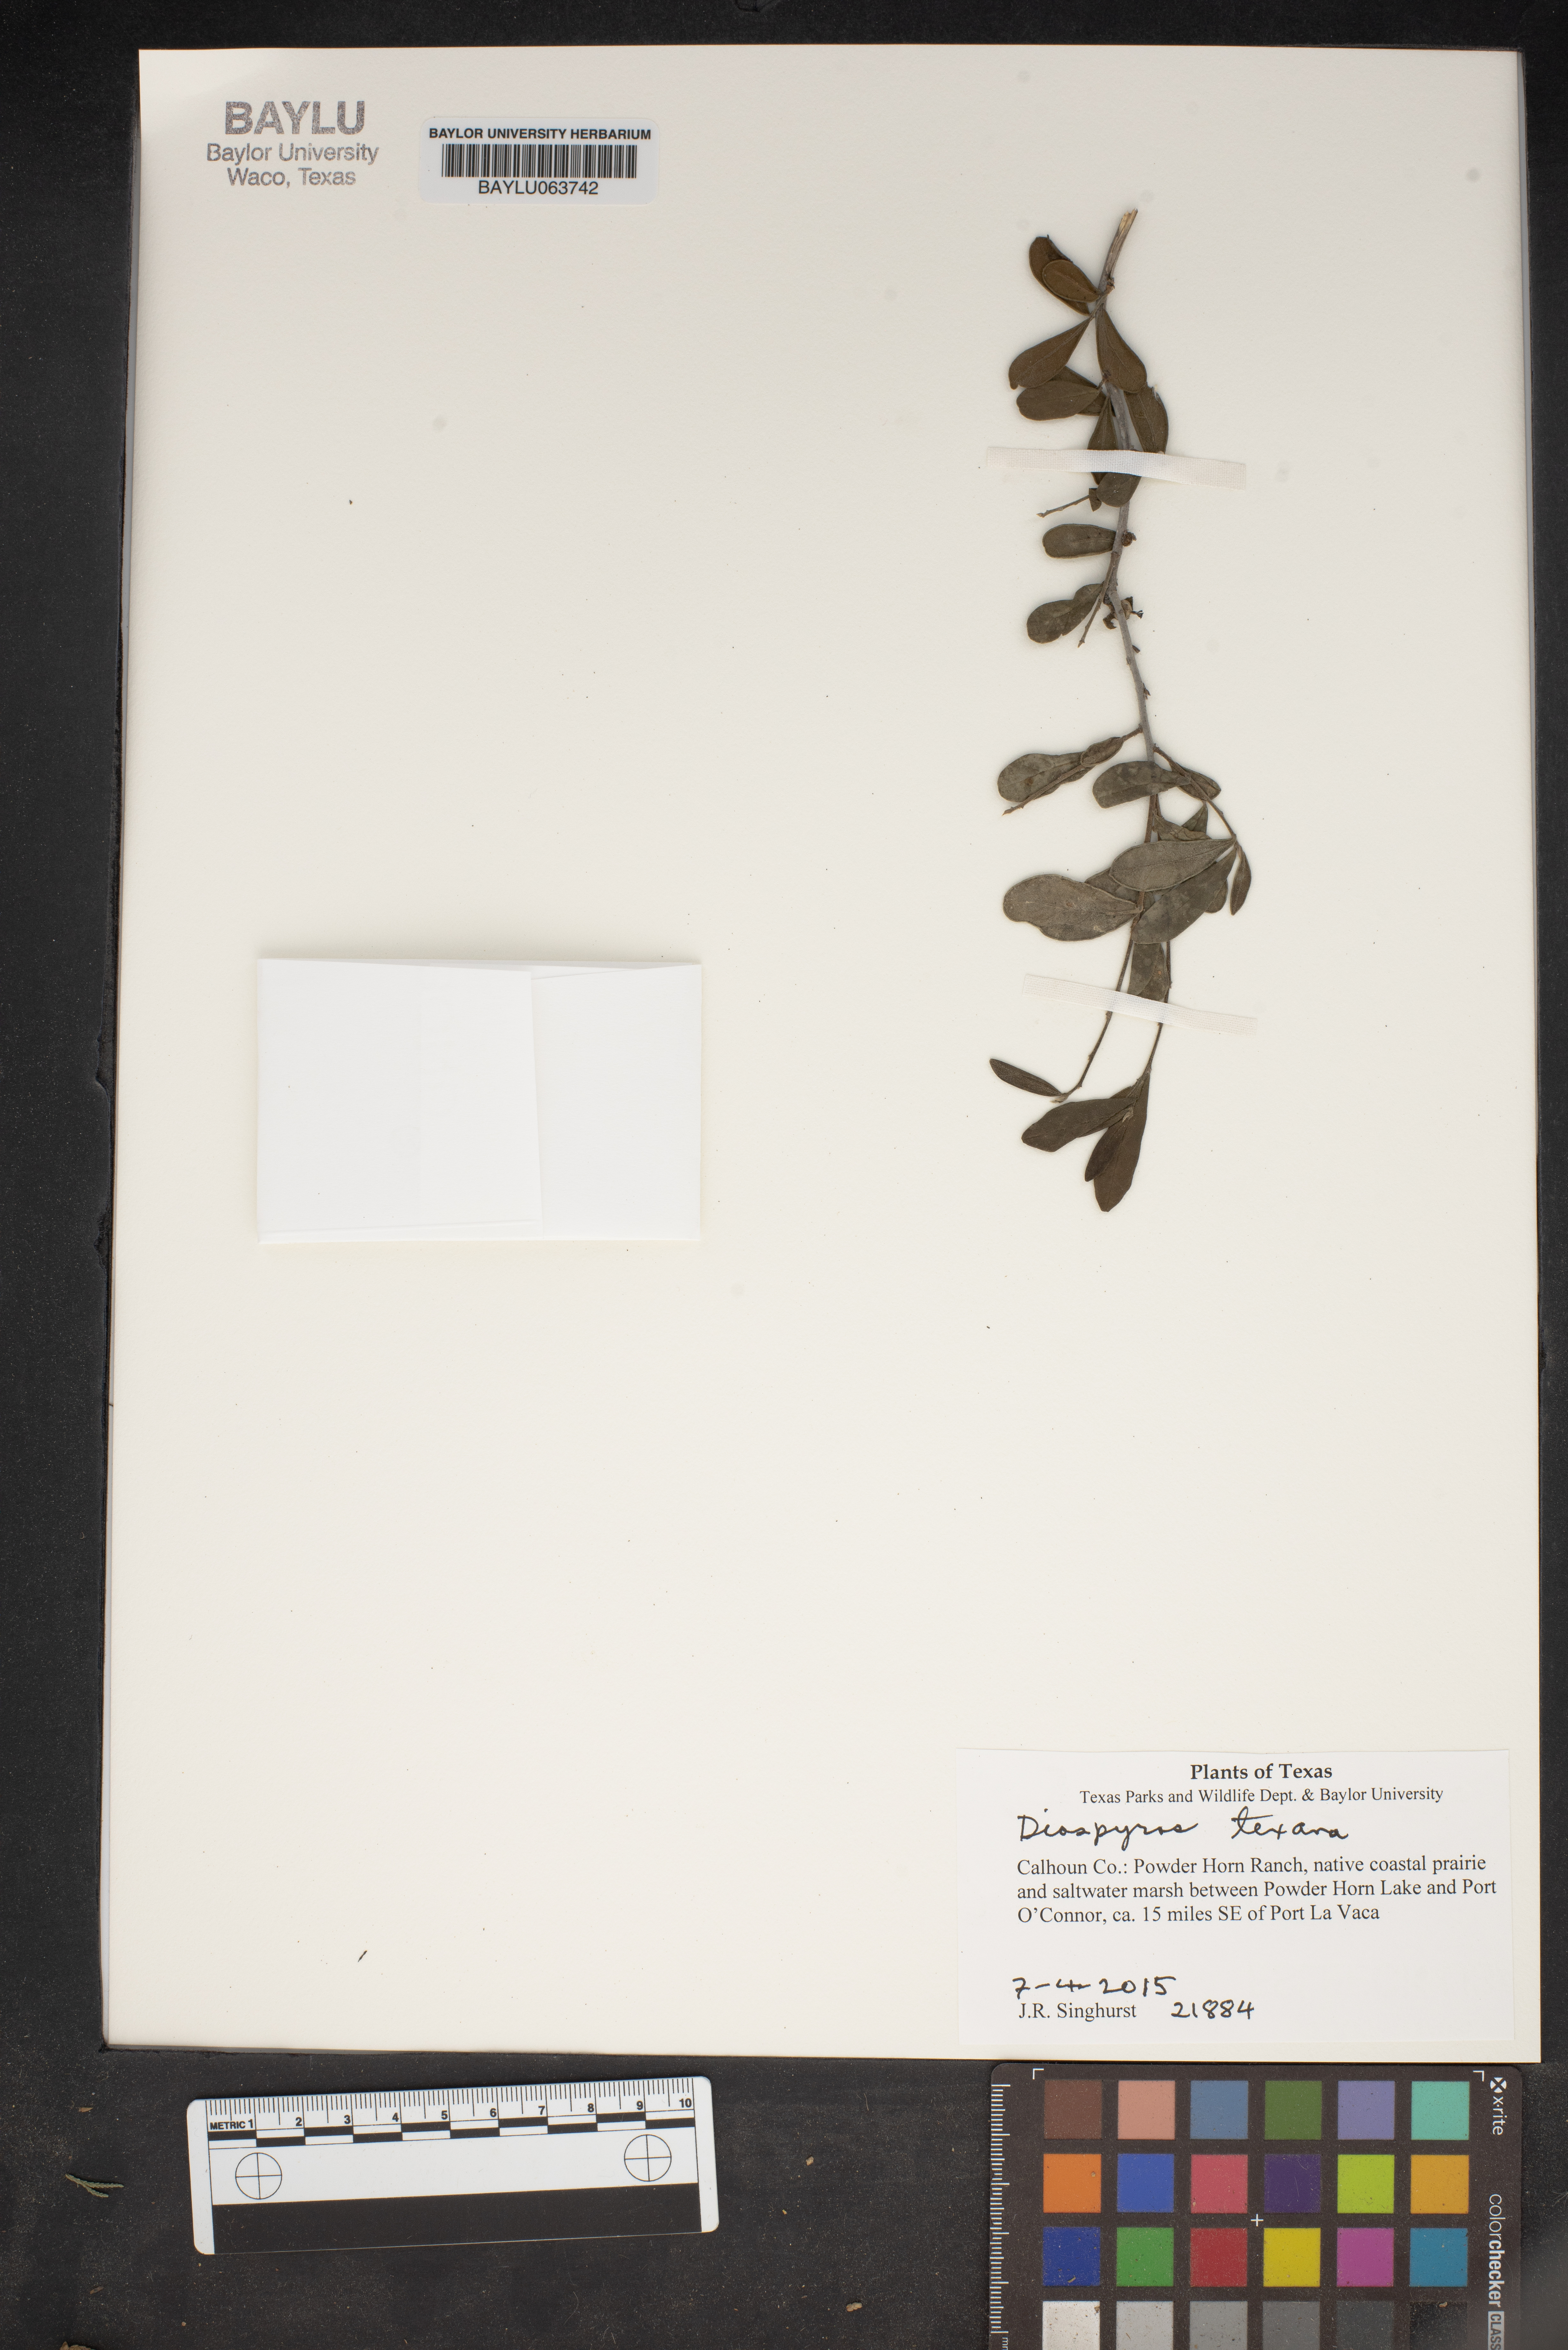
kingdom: Plantae
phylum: Tracheophyta
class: Magnoliopsida
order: Ericales
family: Ebenaceae
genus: Diospyros
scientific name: Diospyros texana
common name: Texas persimmon
